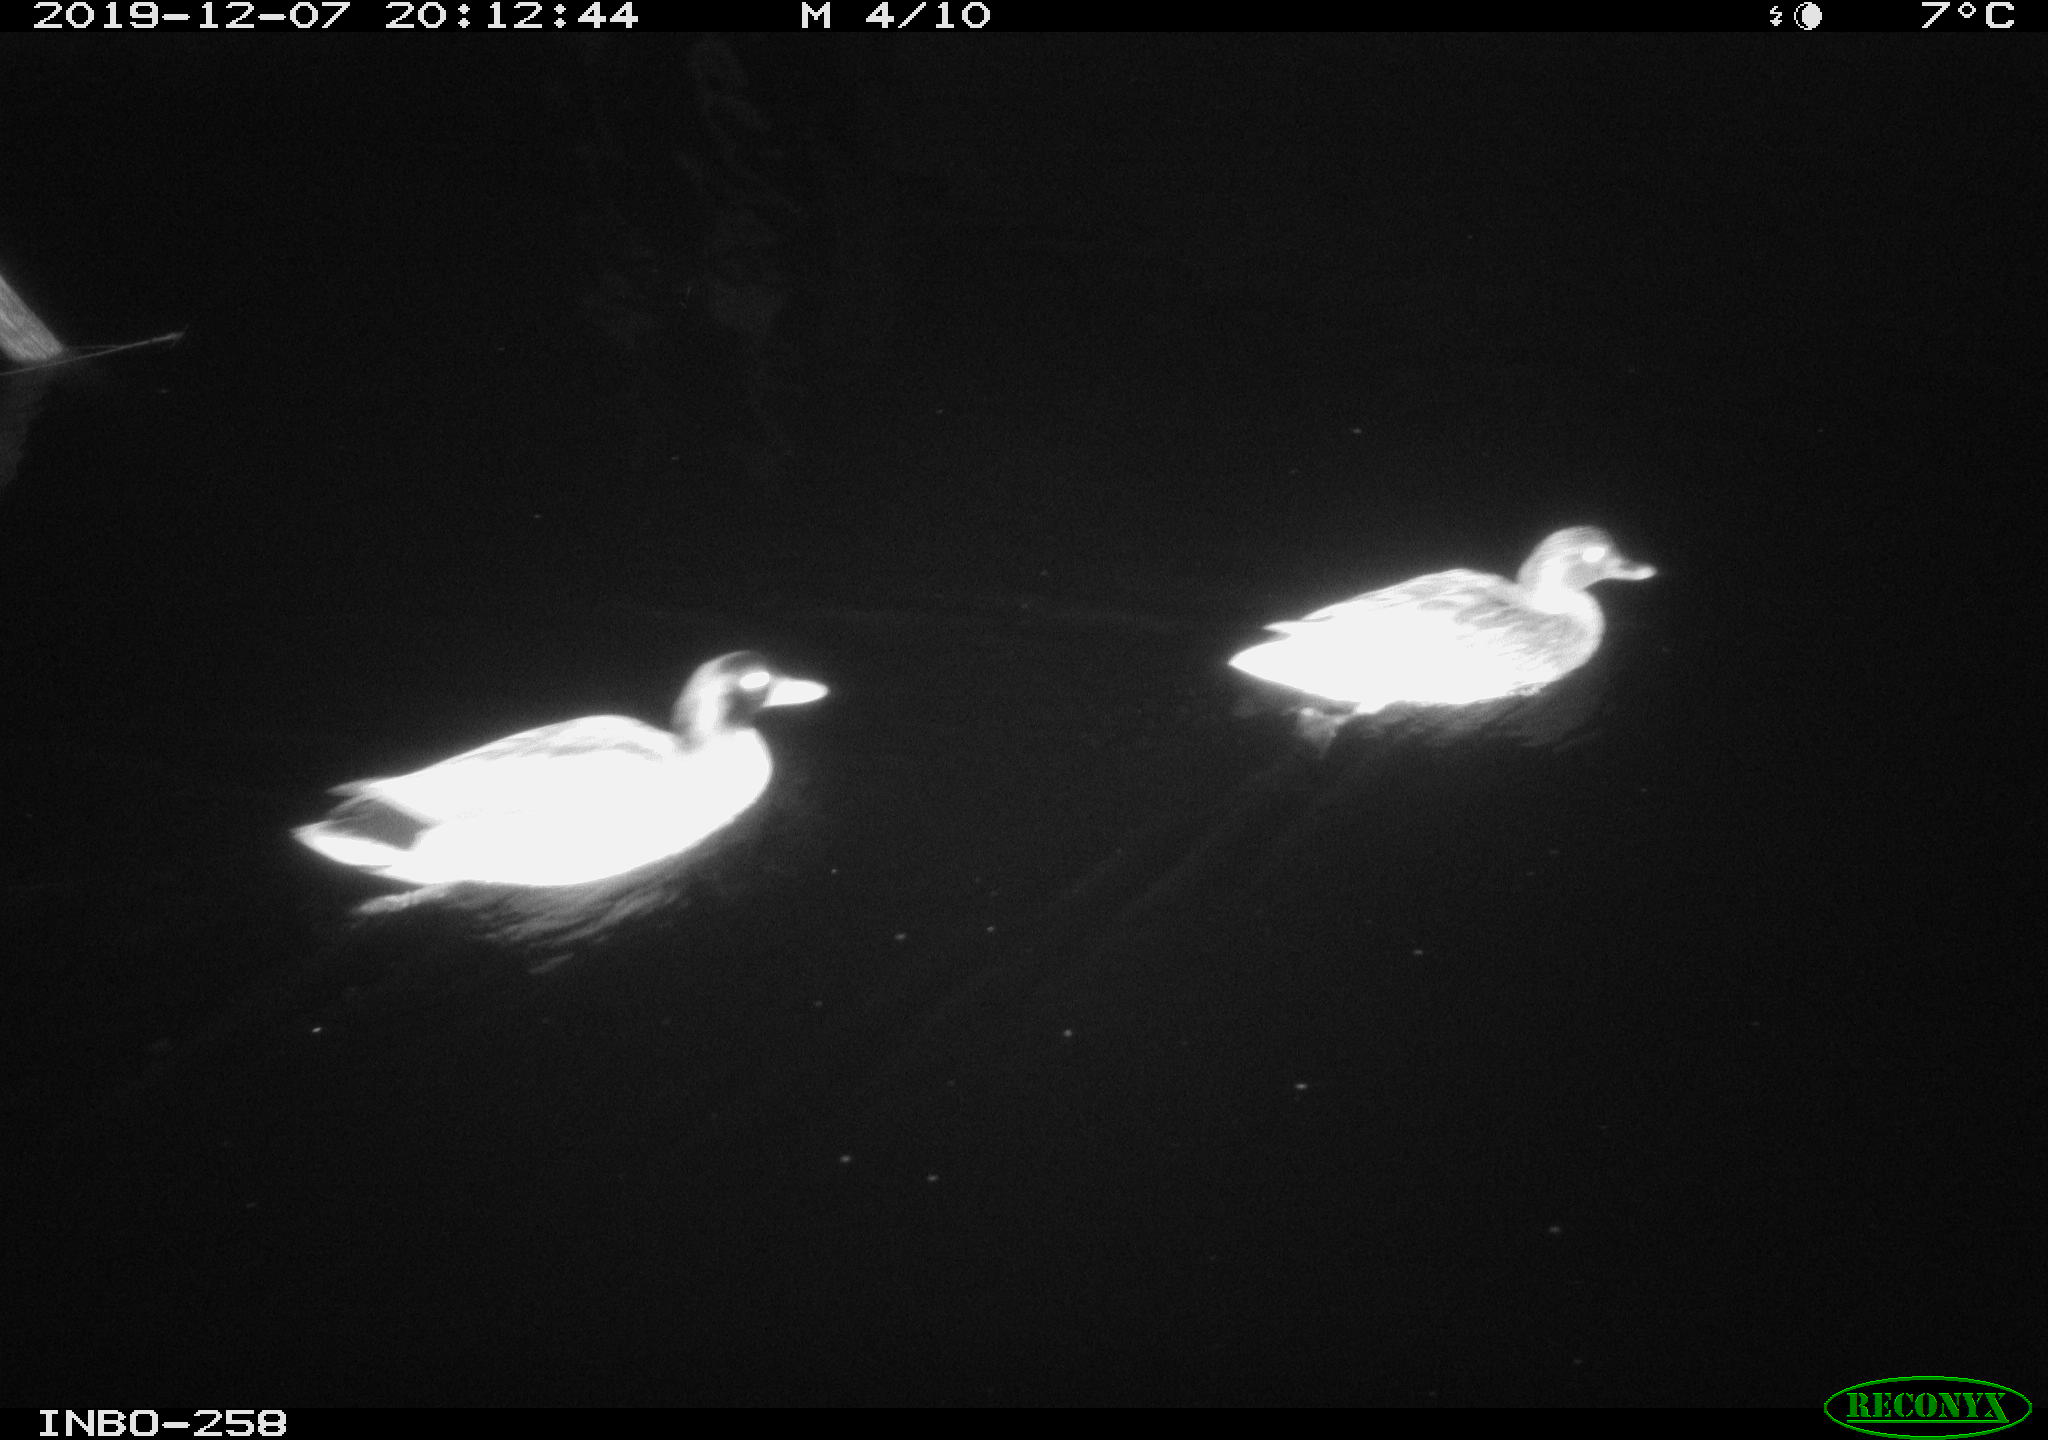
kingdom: Animalia
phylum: Chordata
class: Aves
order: Anseriformes
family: Anatidae
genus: Anas
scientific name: Anas platyrhynchos
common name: Mallard
